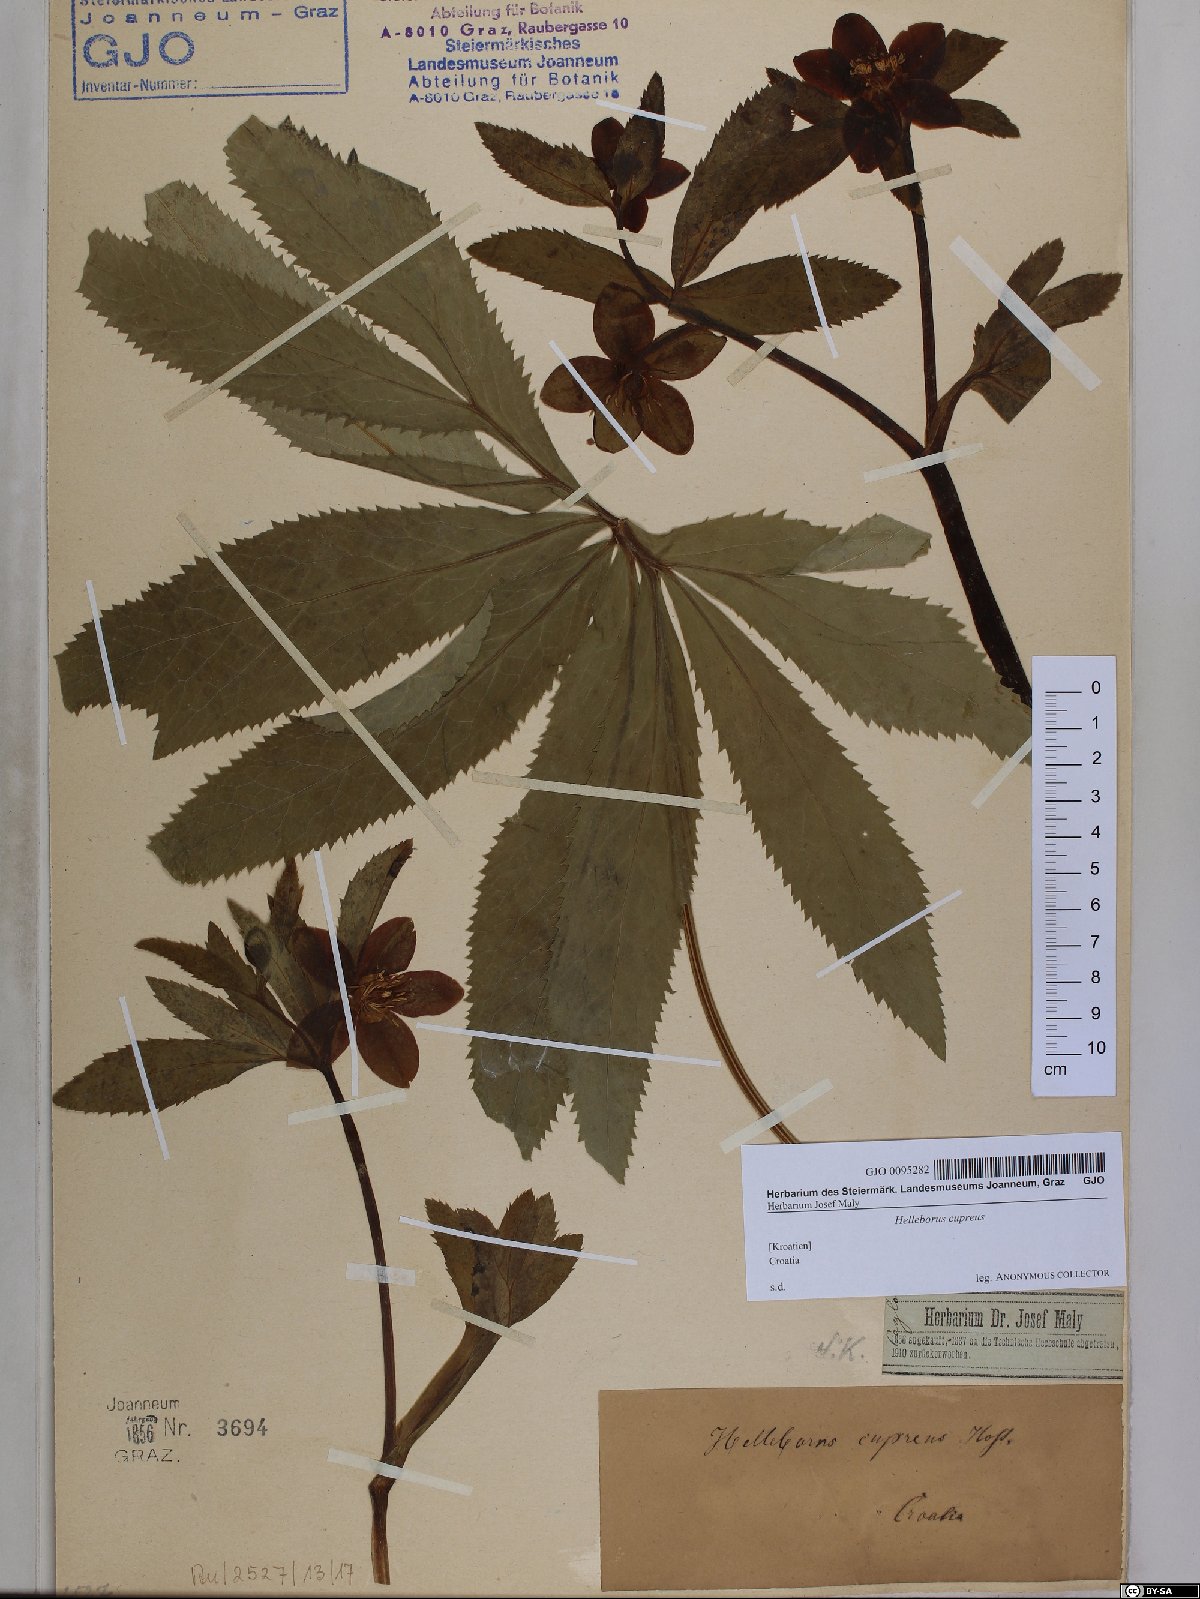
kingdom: Plantae
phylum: Tracheophyta
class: Magnoliopsida
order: Ranunculales
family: Ranunculaceae
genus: Helleborus
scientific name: Helleborus
